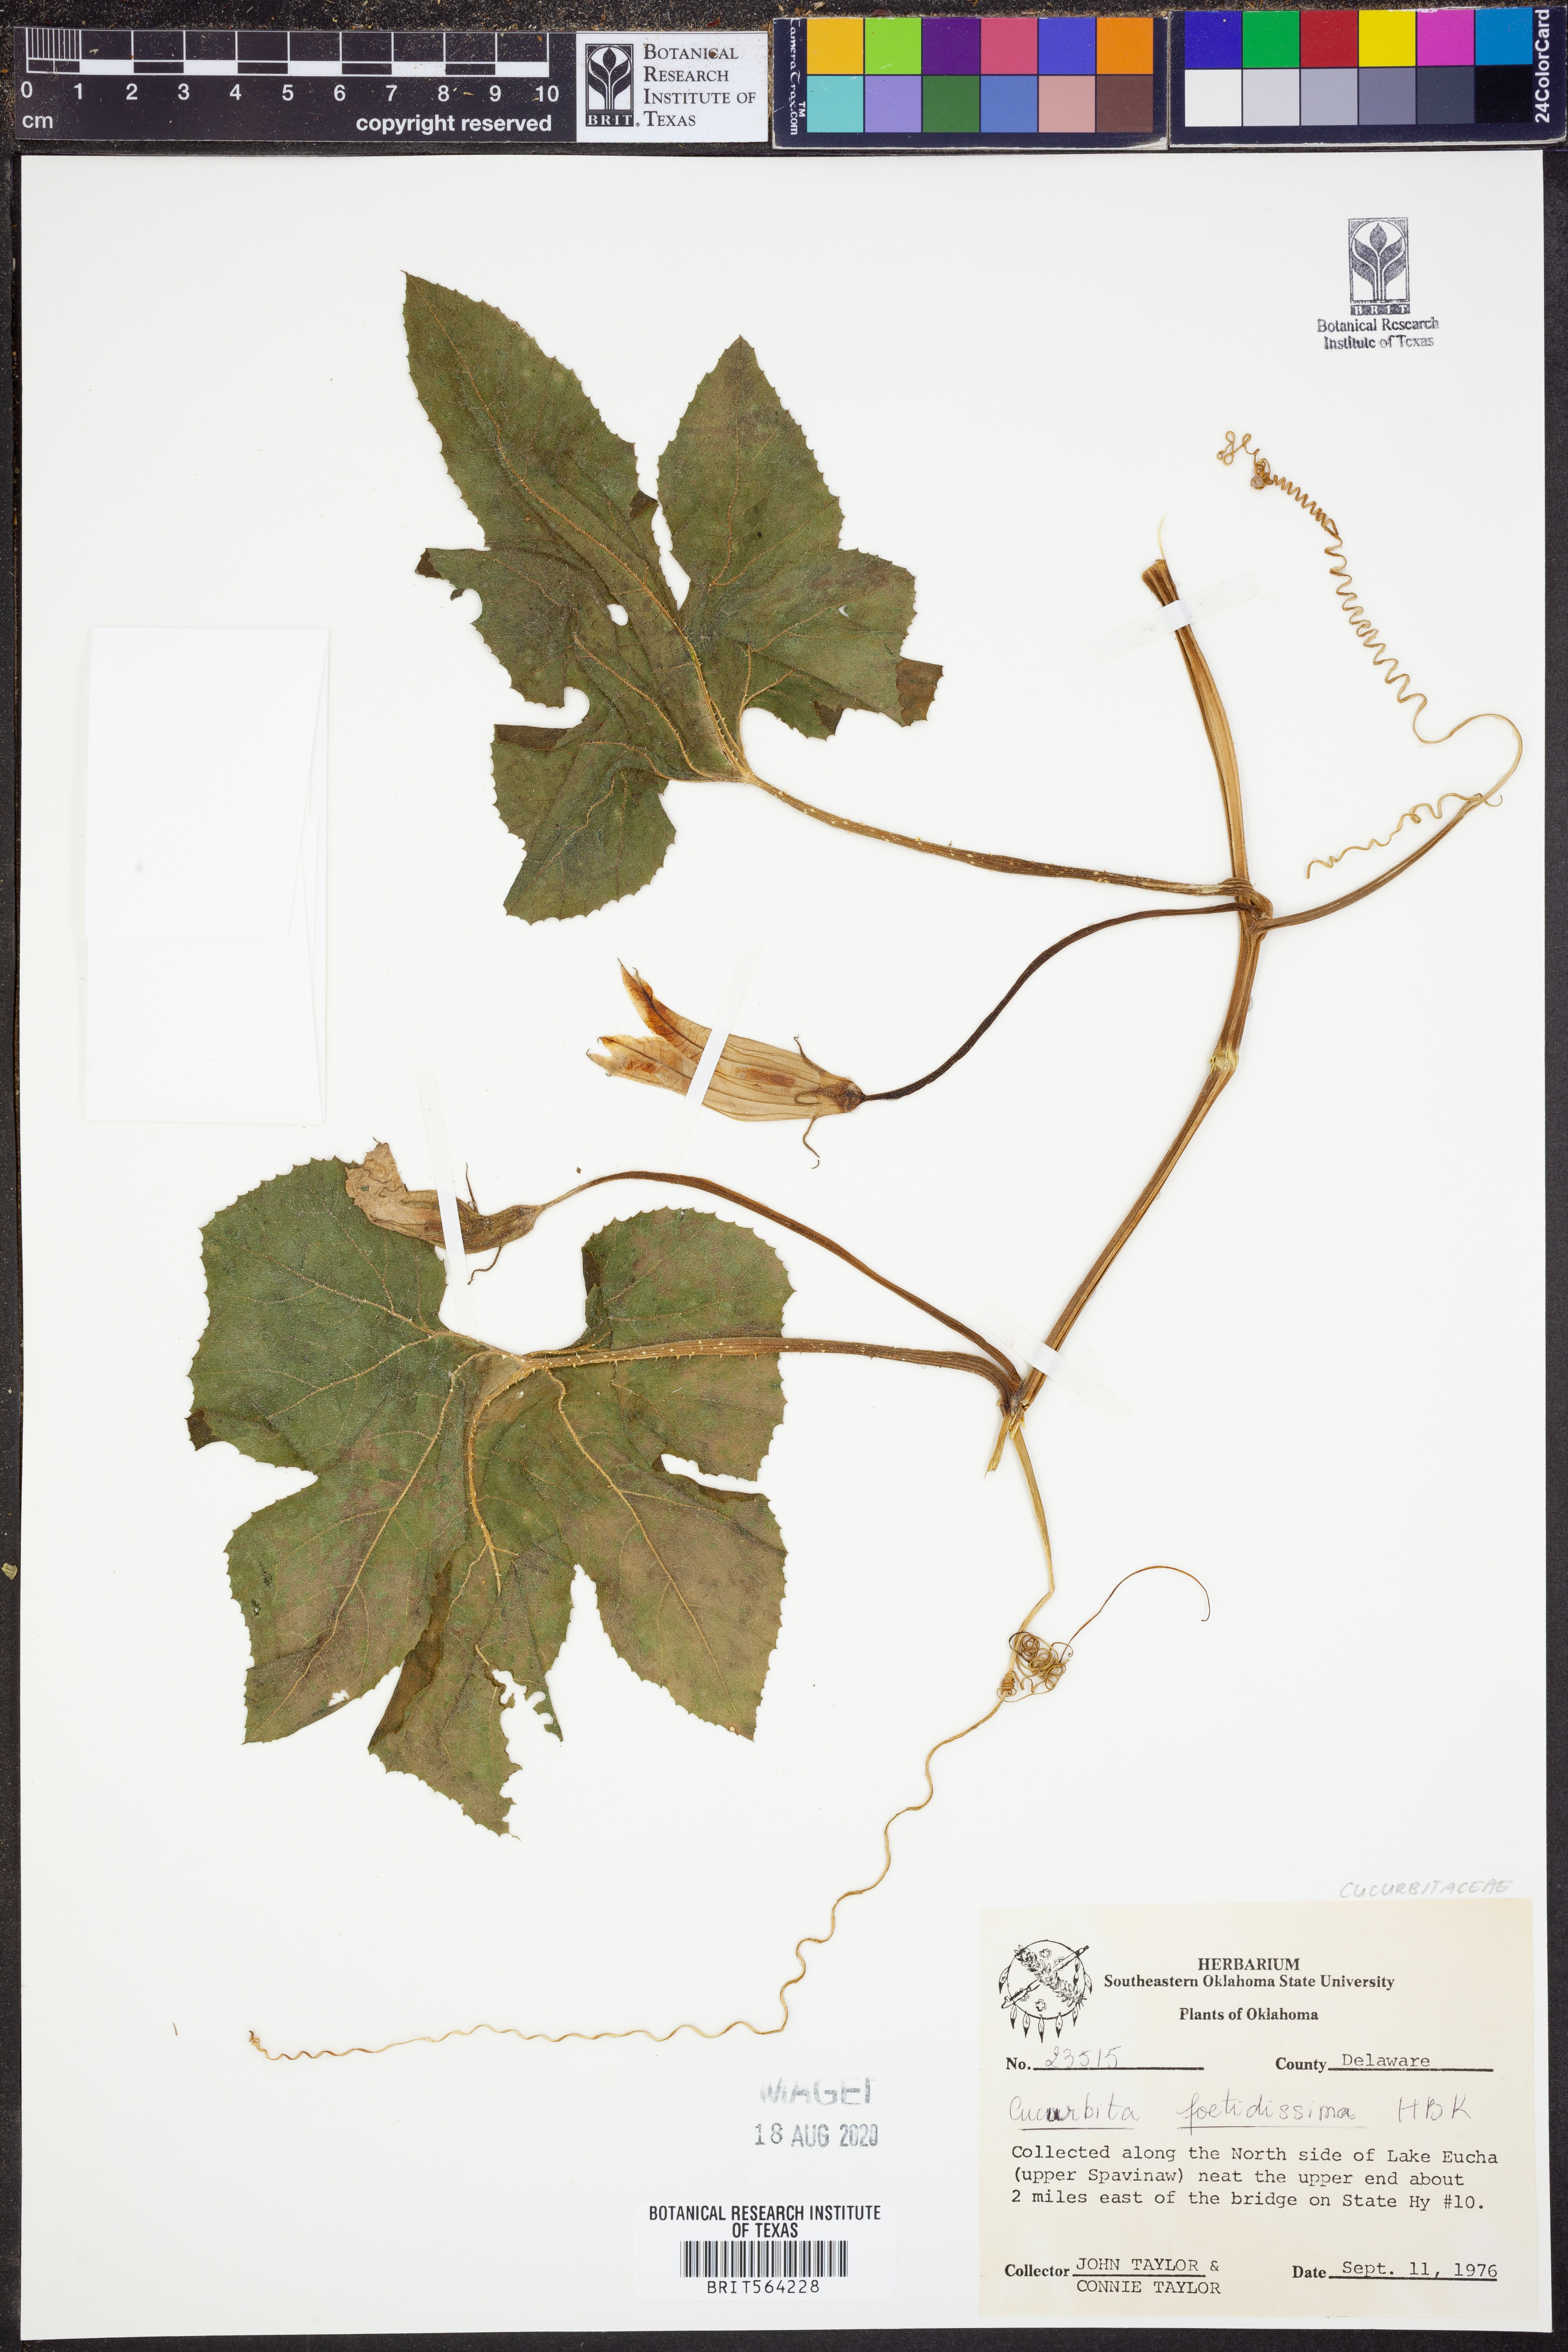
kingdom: Plantae
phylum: Tracheophyta
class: Magnoliopsida
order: Cucurbitales
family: Cucurbitaceae
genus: Cucurbita
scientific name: Cucurbita foetidissima
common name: Buffalo gourd
